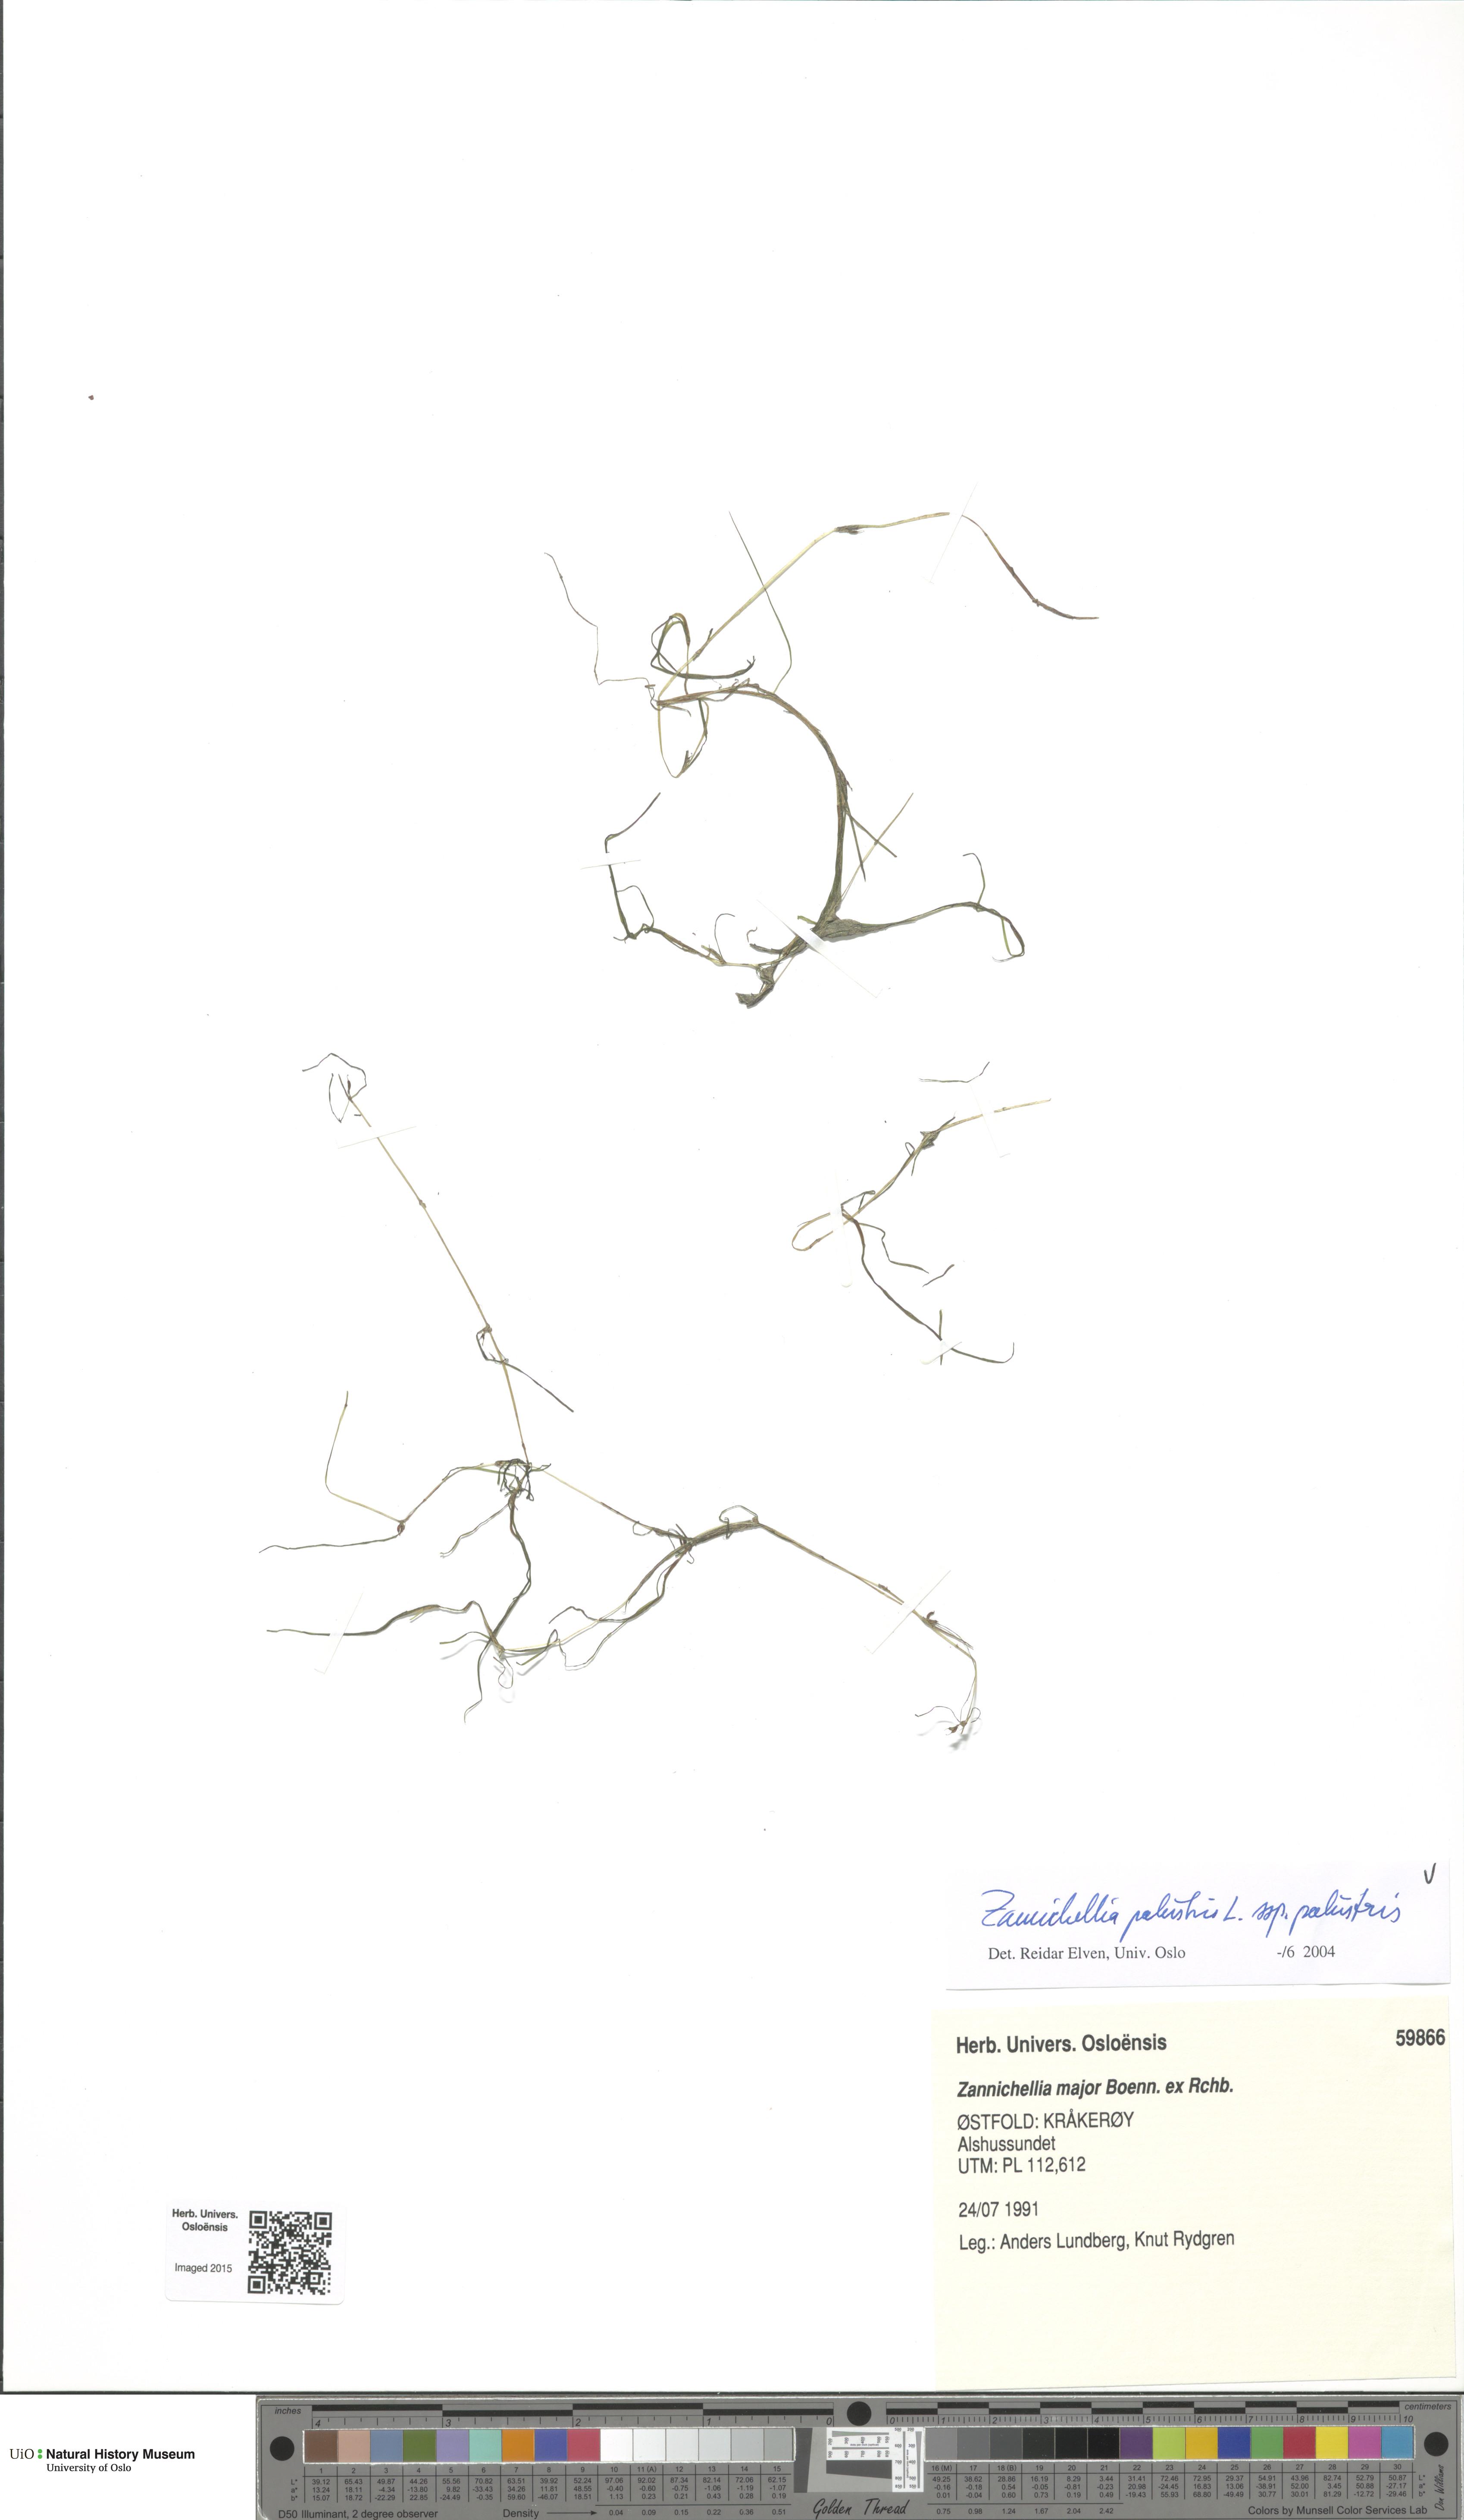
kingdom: Plantae
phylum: Tracheophyta
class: Liliopsida
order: Alismatales
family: Potamogetonaceae
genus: Zannichellia
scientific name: Zannichellia palustris
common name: Horned pondweed
